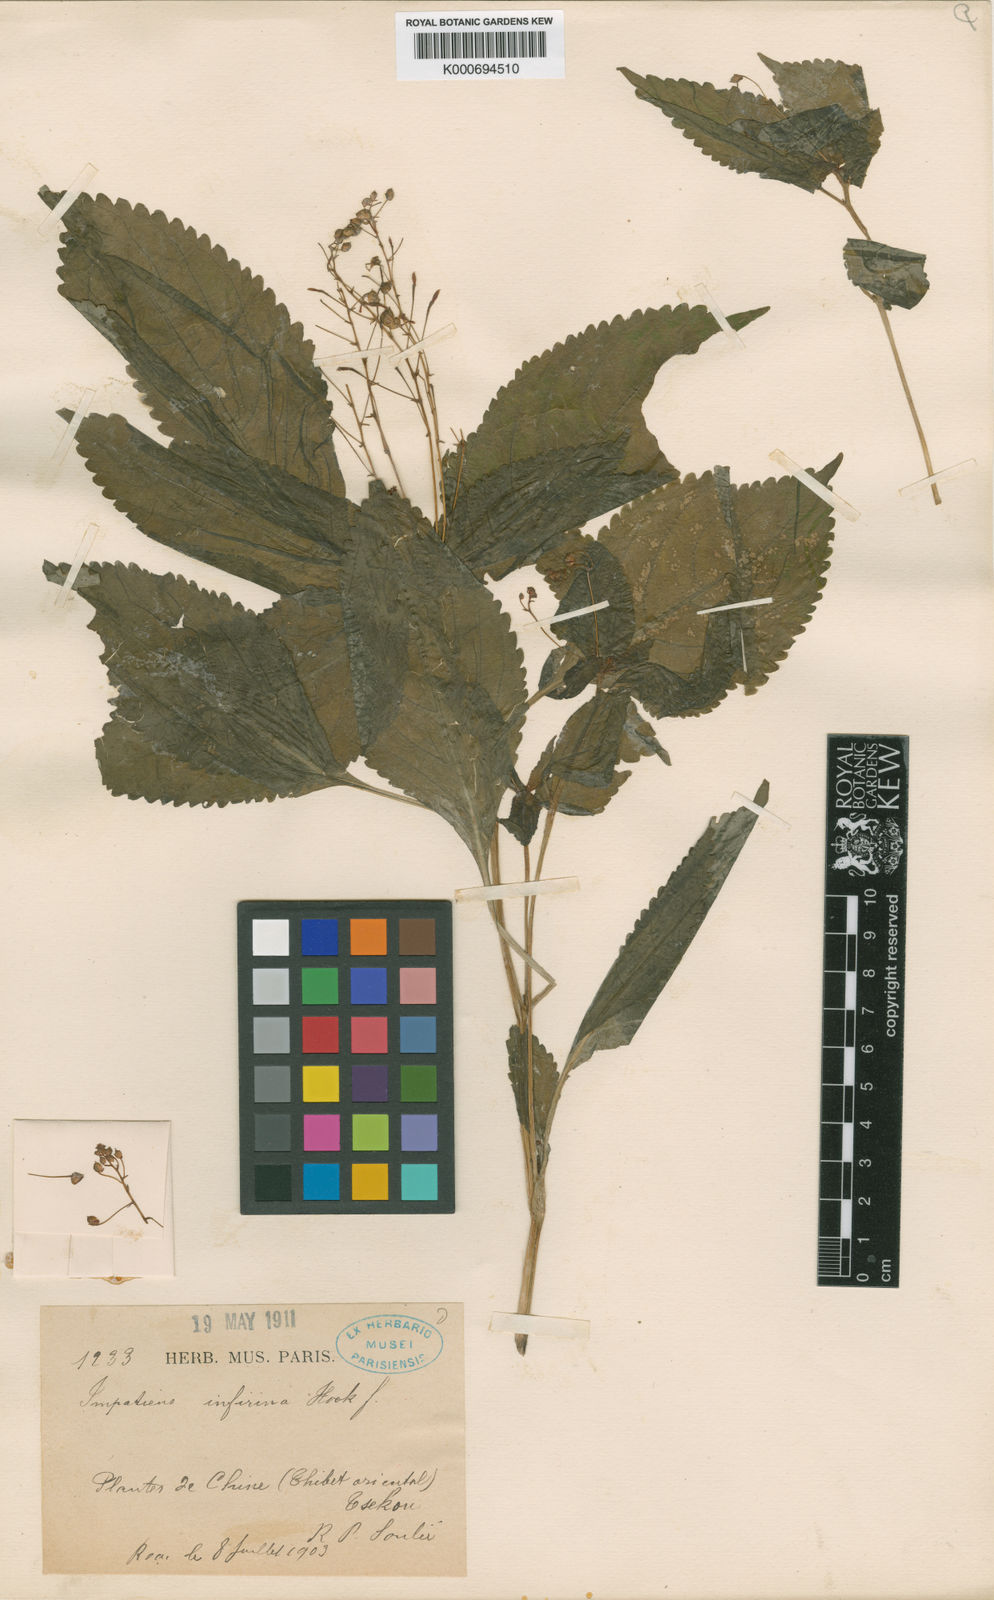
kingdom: Plantae
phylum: Tracheophyta
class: Magnoliopsida
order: Ericales
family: Balsaminaceae
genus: Impatiens
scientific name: Impatiens infirma
